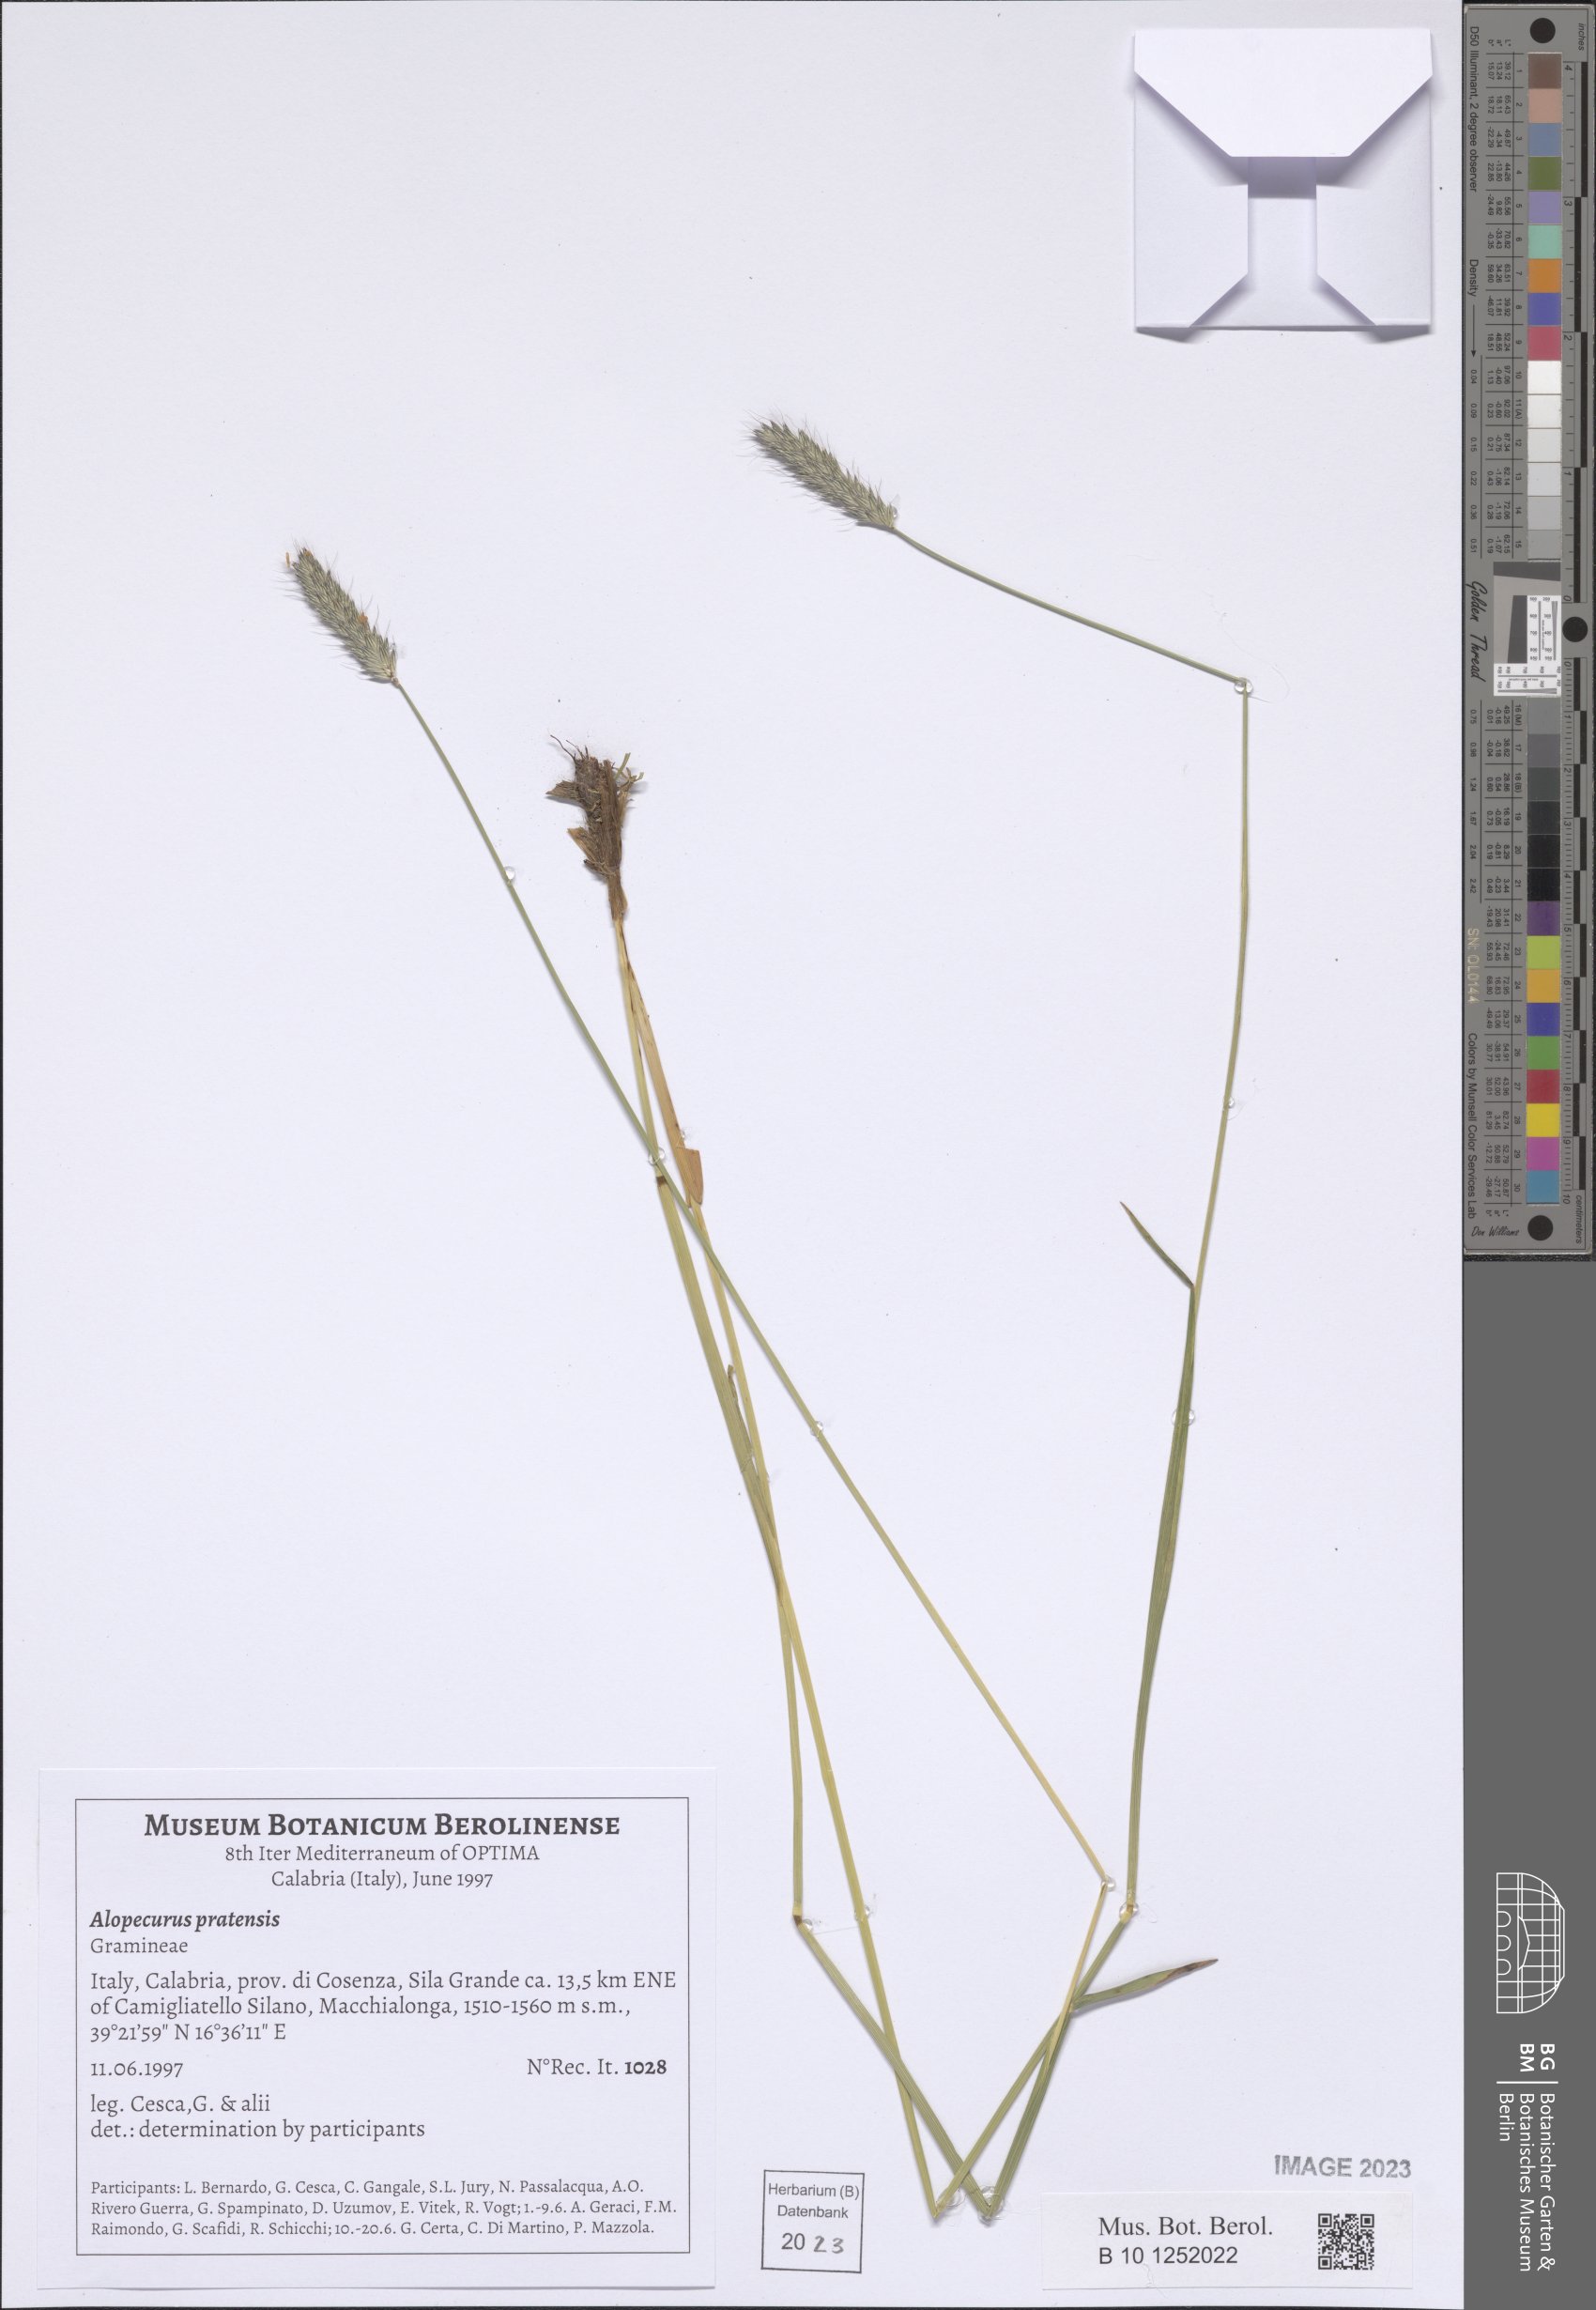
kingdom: Plantae
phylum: Tracheophyta
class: Liliopsida
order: Poales
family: Poaceae
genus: Alopecurus
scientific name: Alopecurus pratensis
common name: Meadow foxtail
